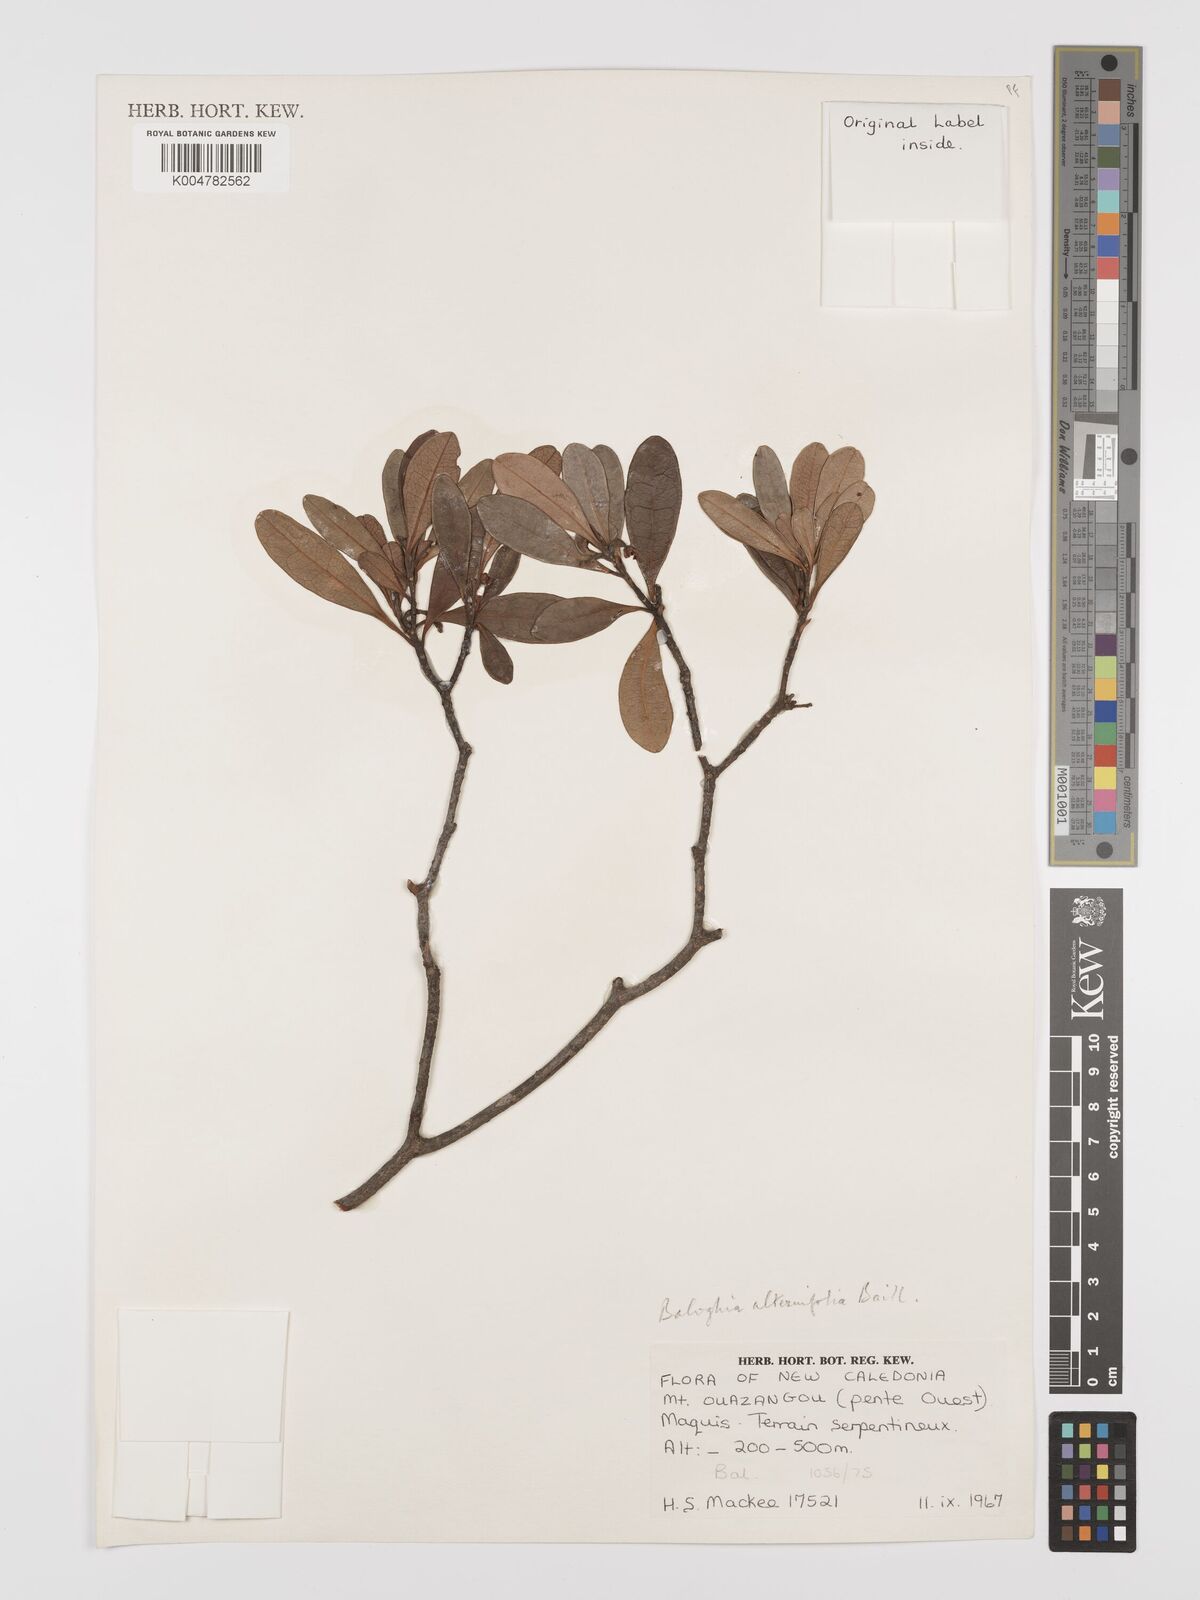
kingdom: Plantae
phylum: Tracheophyta
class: Magnoliopsida
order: Malpighiales
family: Euphorbiaceae
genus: Baloghia
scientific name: Baloghia alternifolia
